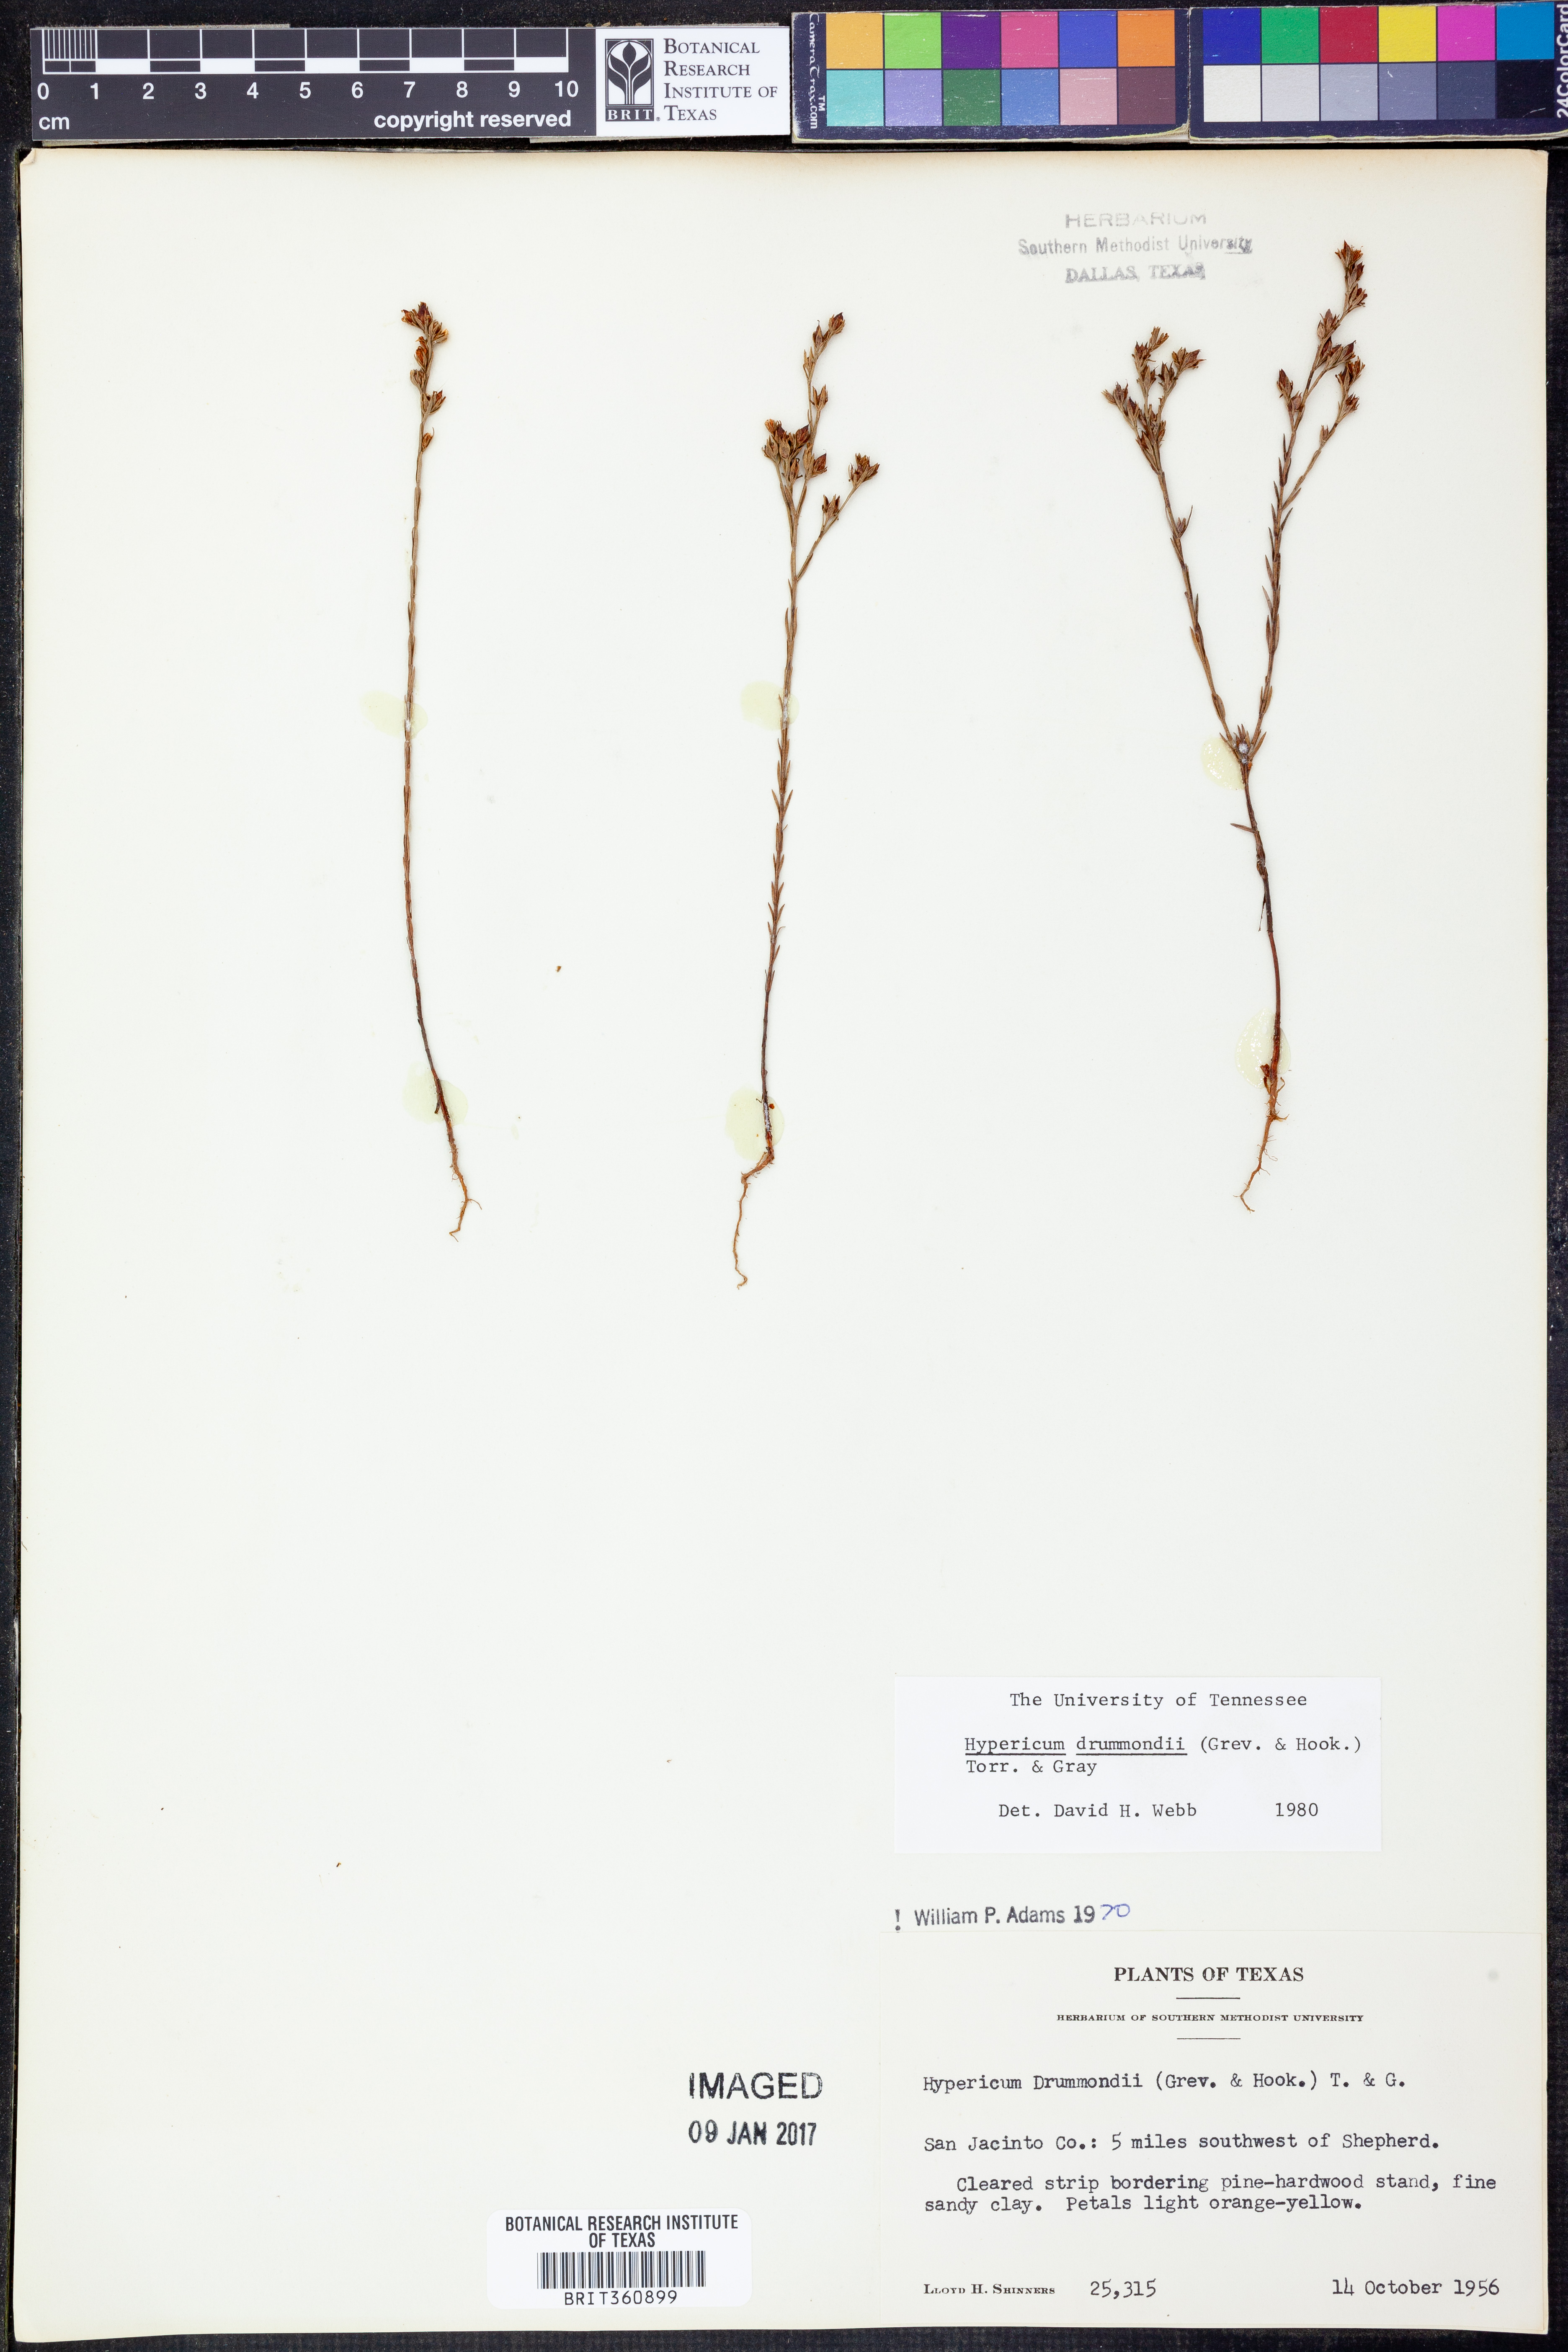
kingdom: Plantae
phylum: Tracheophyta
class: Magnoliopsida
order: Malpighiales
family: Hypericaceae
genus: Hypericum
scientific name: Hypericum drummondii
